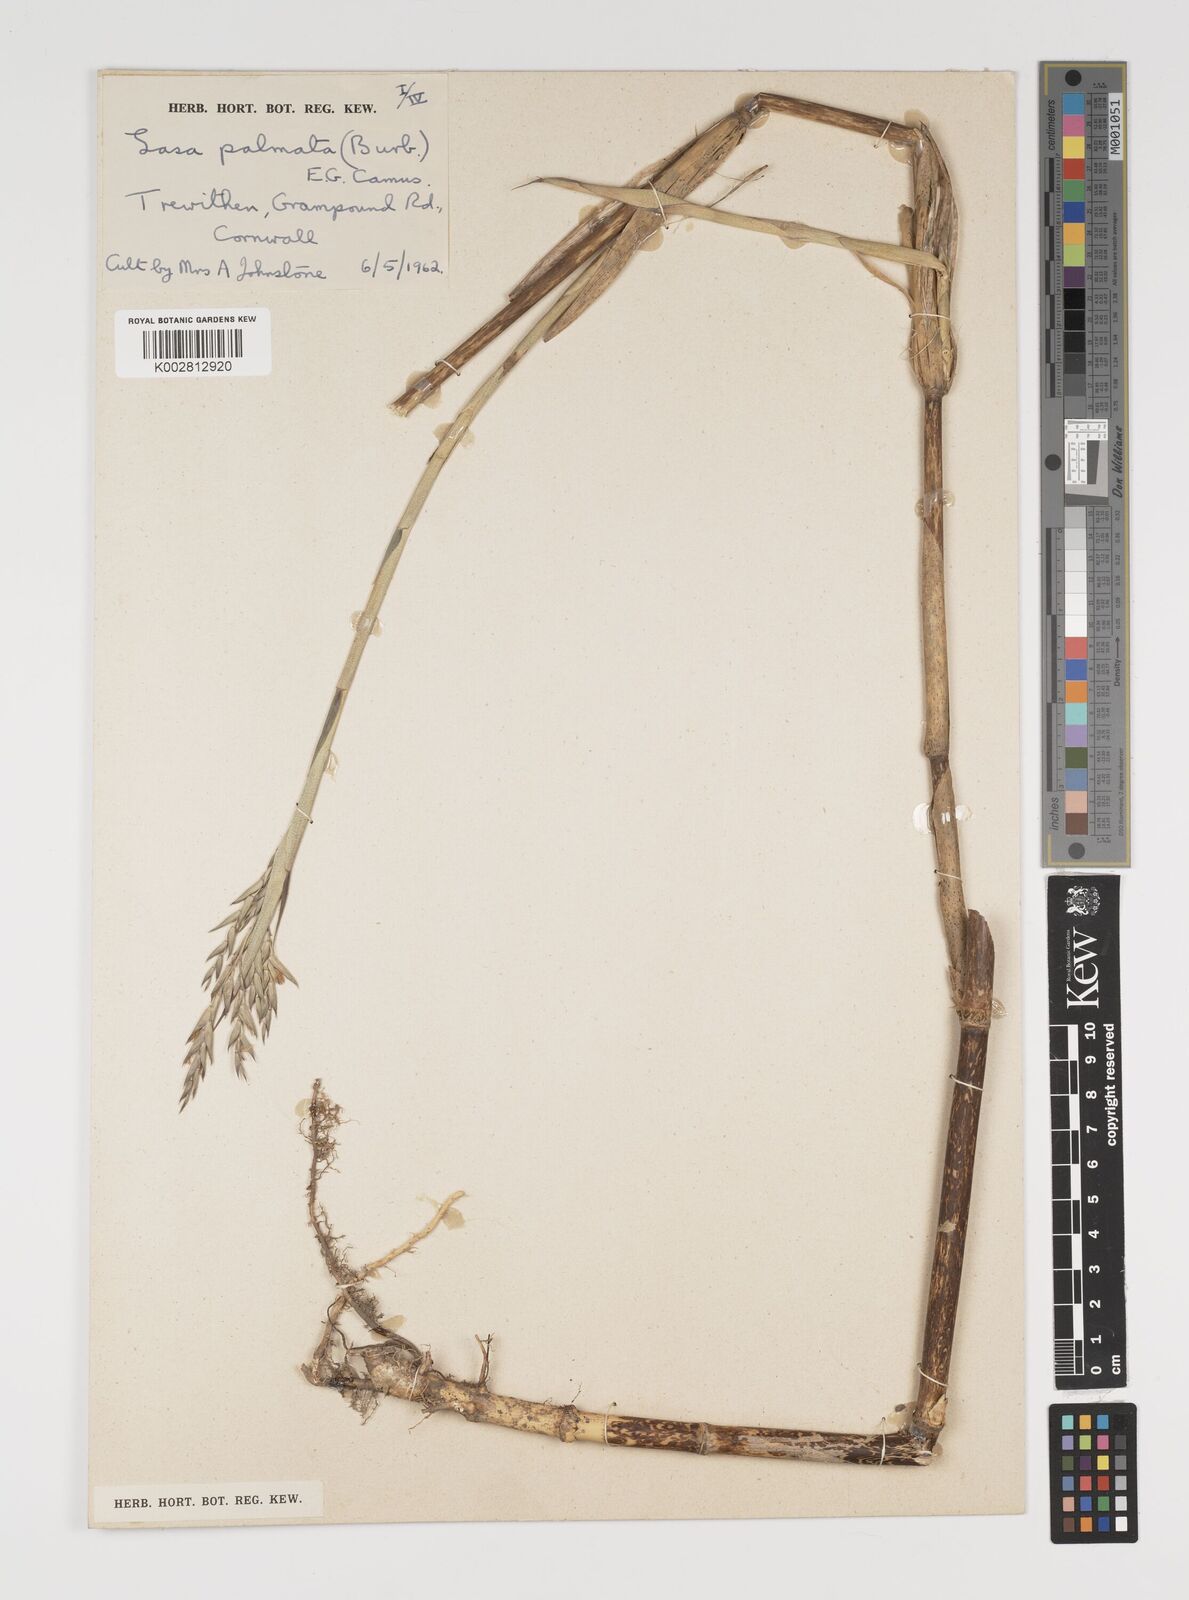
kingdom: Plantae
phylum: Tracheophyta
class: Liliopsida
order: Poales
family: Poaceae
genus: Sasa
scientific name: Sasa palmata
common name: Broad-leaved bamboo
